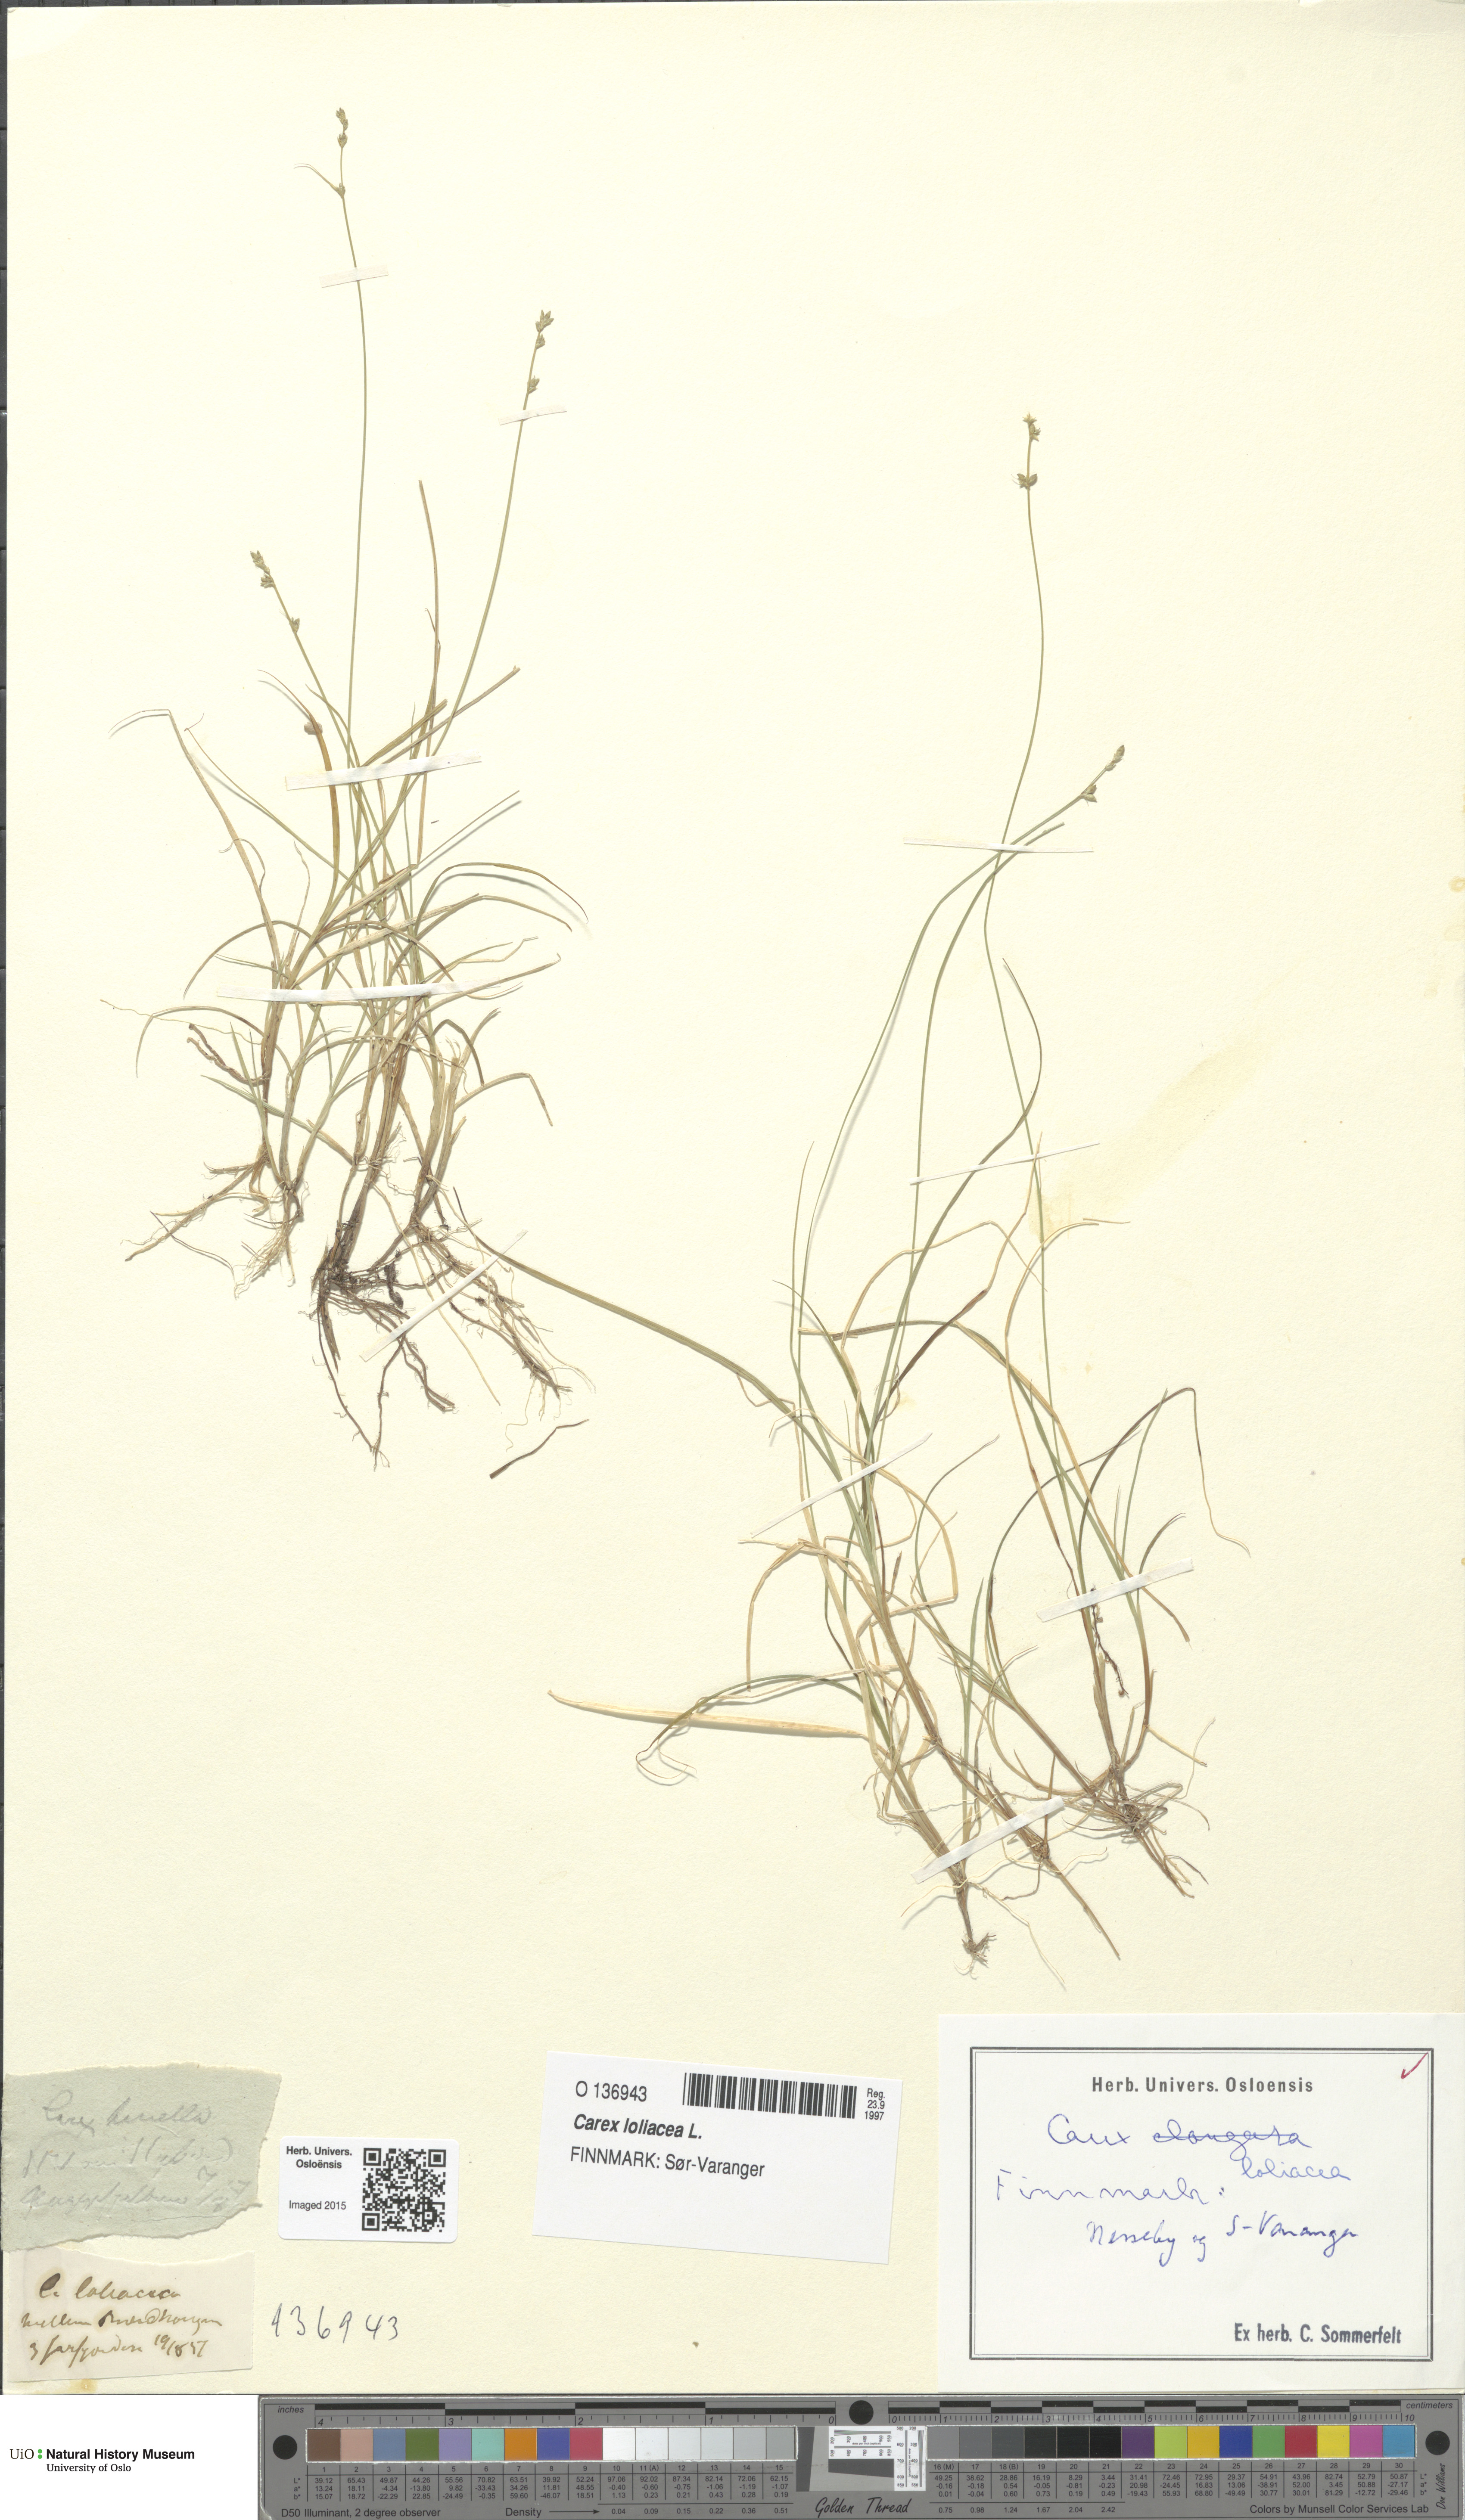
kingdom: Plantae
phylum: Tracheophyta
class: Liliopsida
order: Poales
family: Cyperaceae
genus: Carex
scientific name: Carex loliacea
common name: Ryegrass sedge
